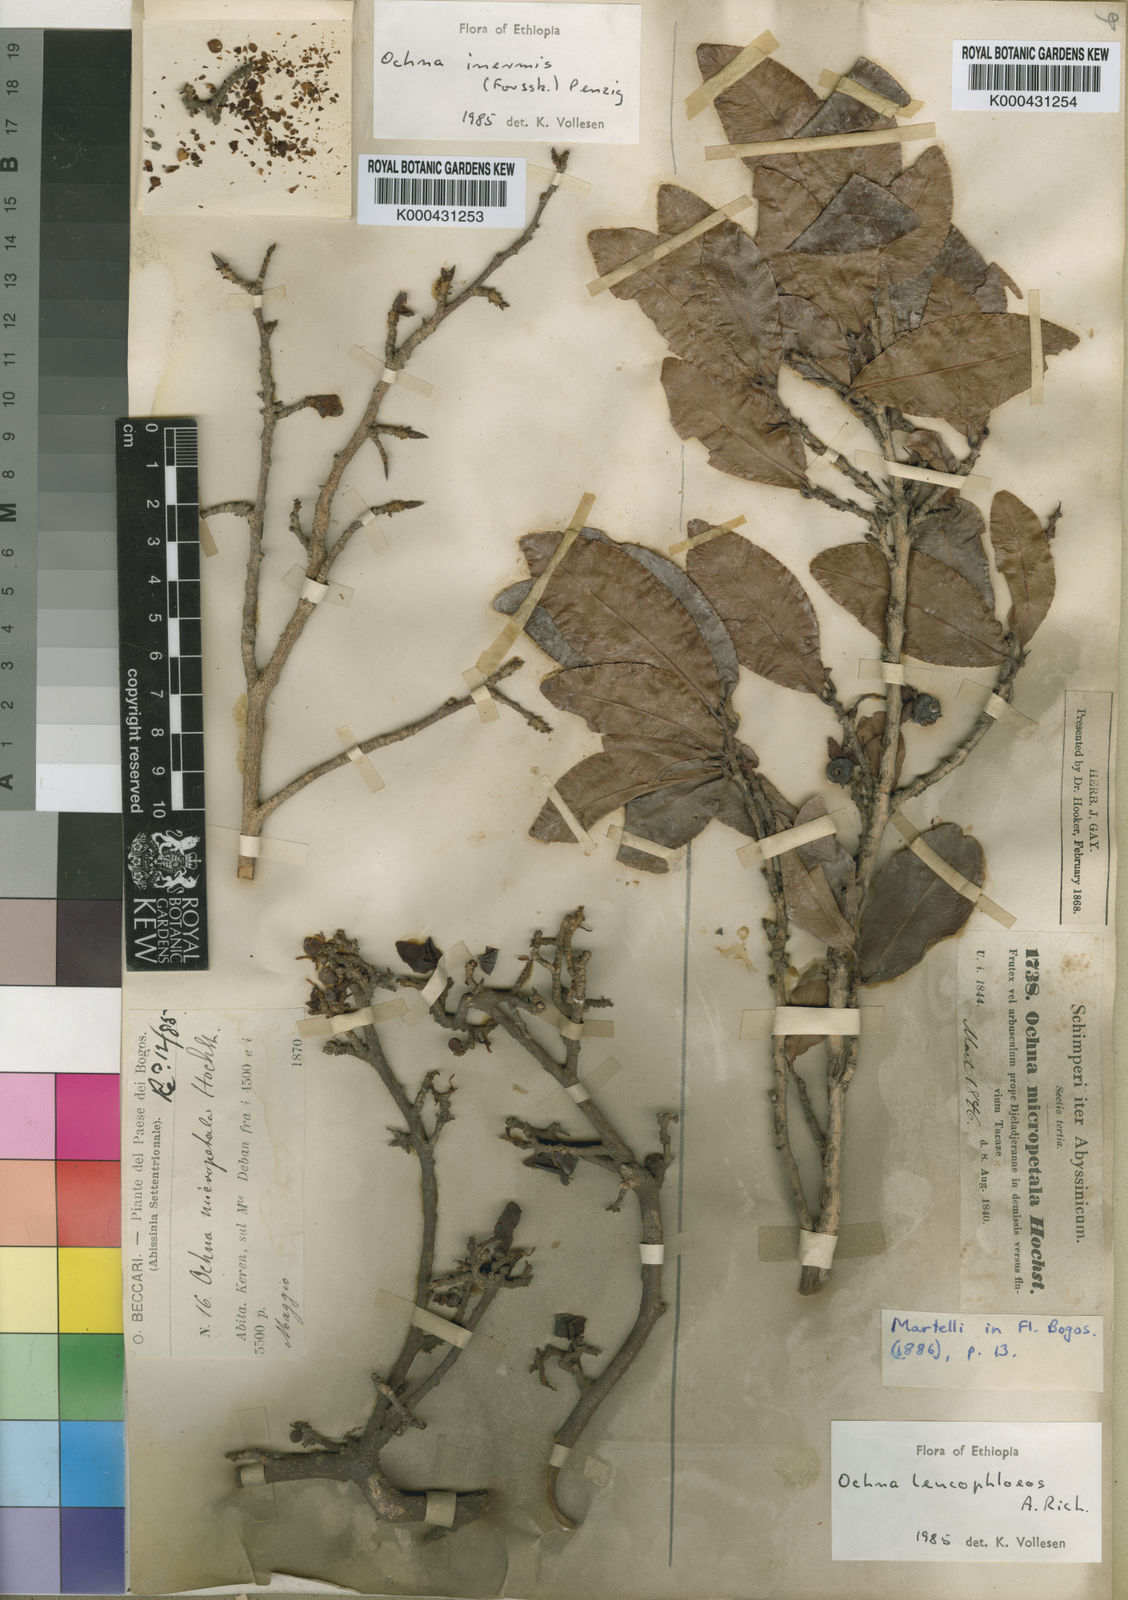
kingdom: Plantae
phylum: Tracheophyta
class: Magnoliopsida
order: Malpighiales
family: Ochnaceae
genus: Ochna
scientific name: Ochna leucophloeos
